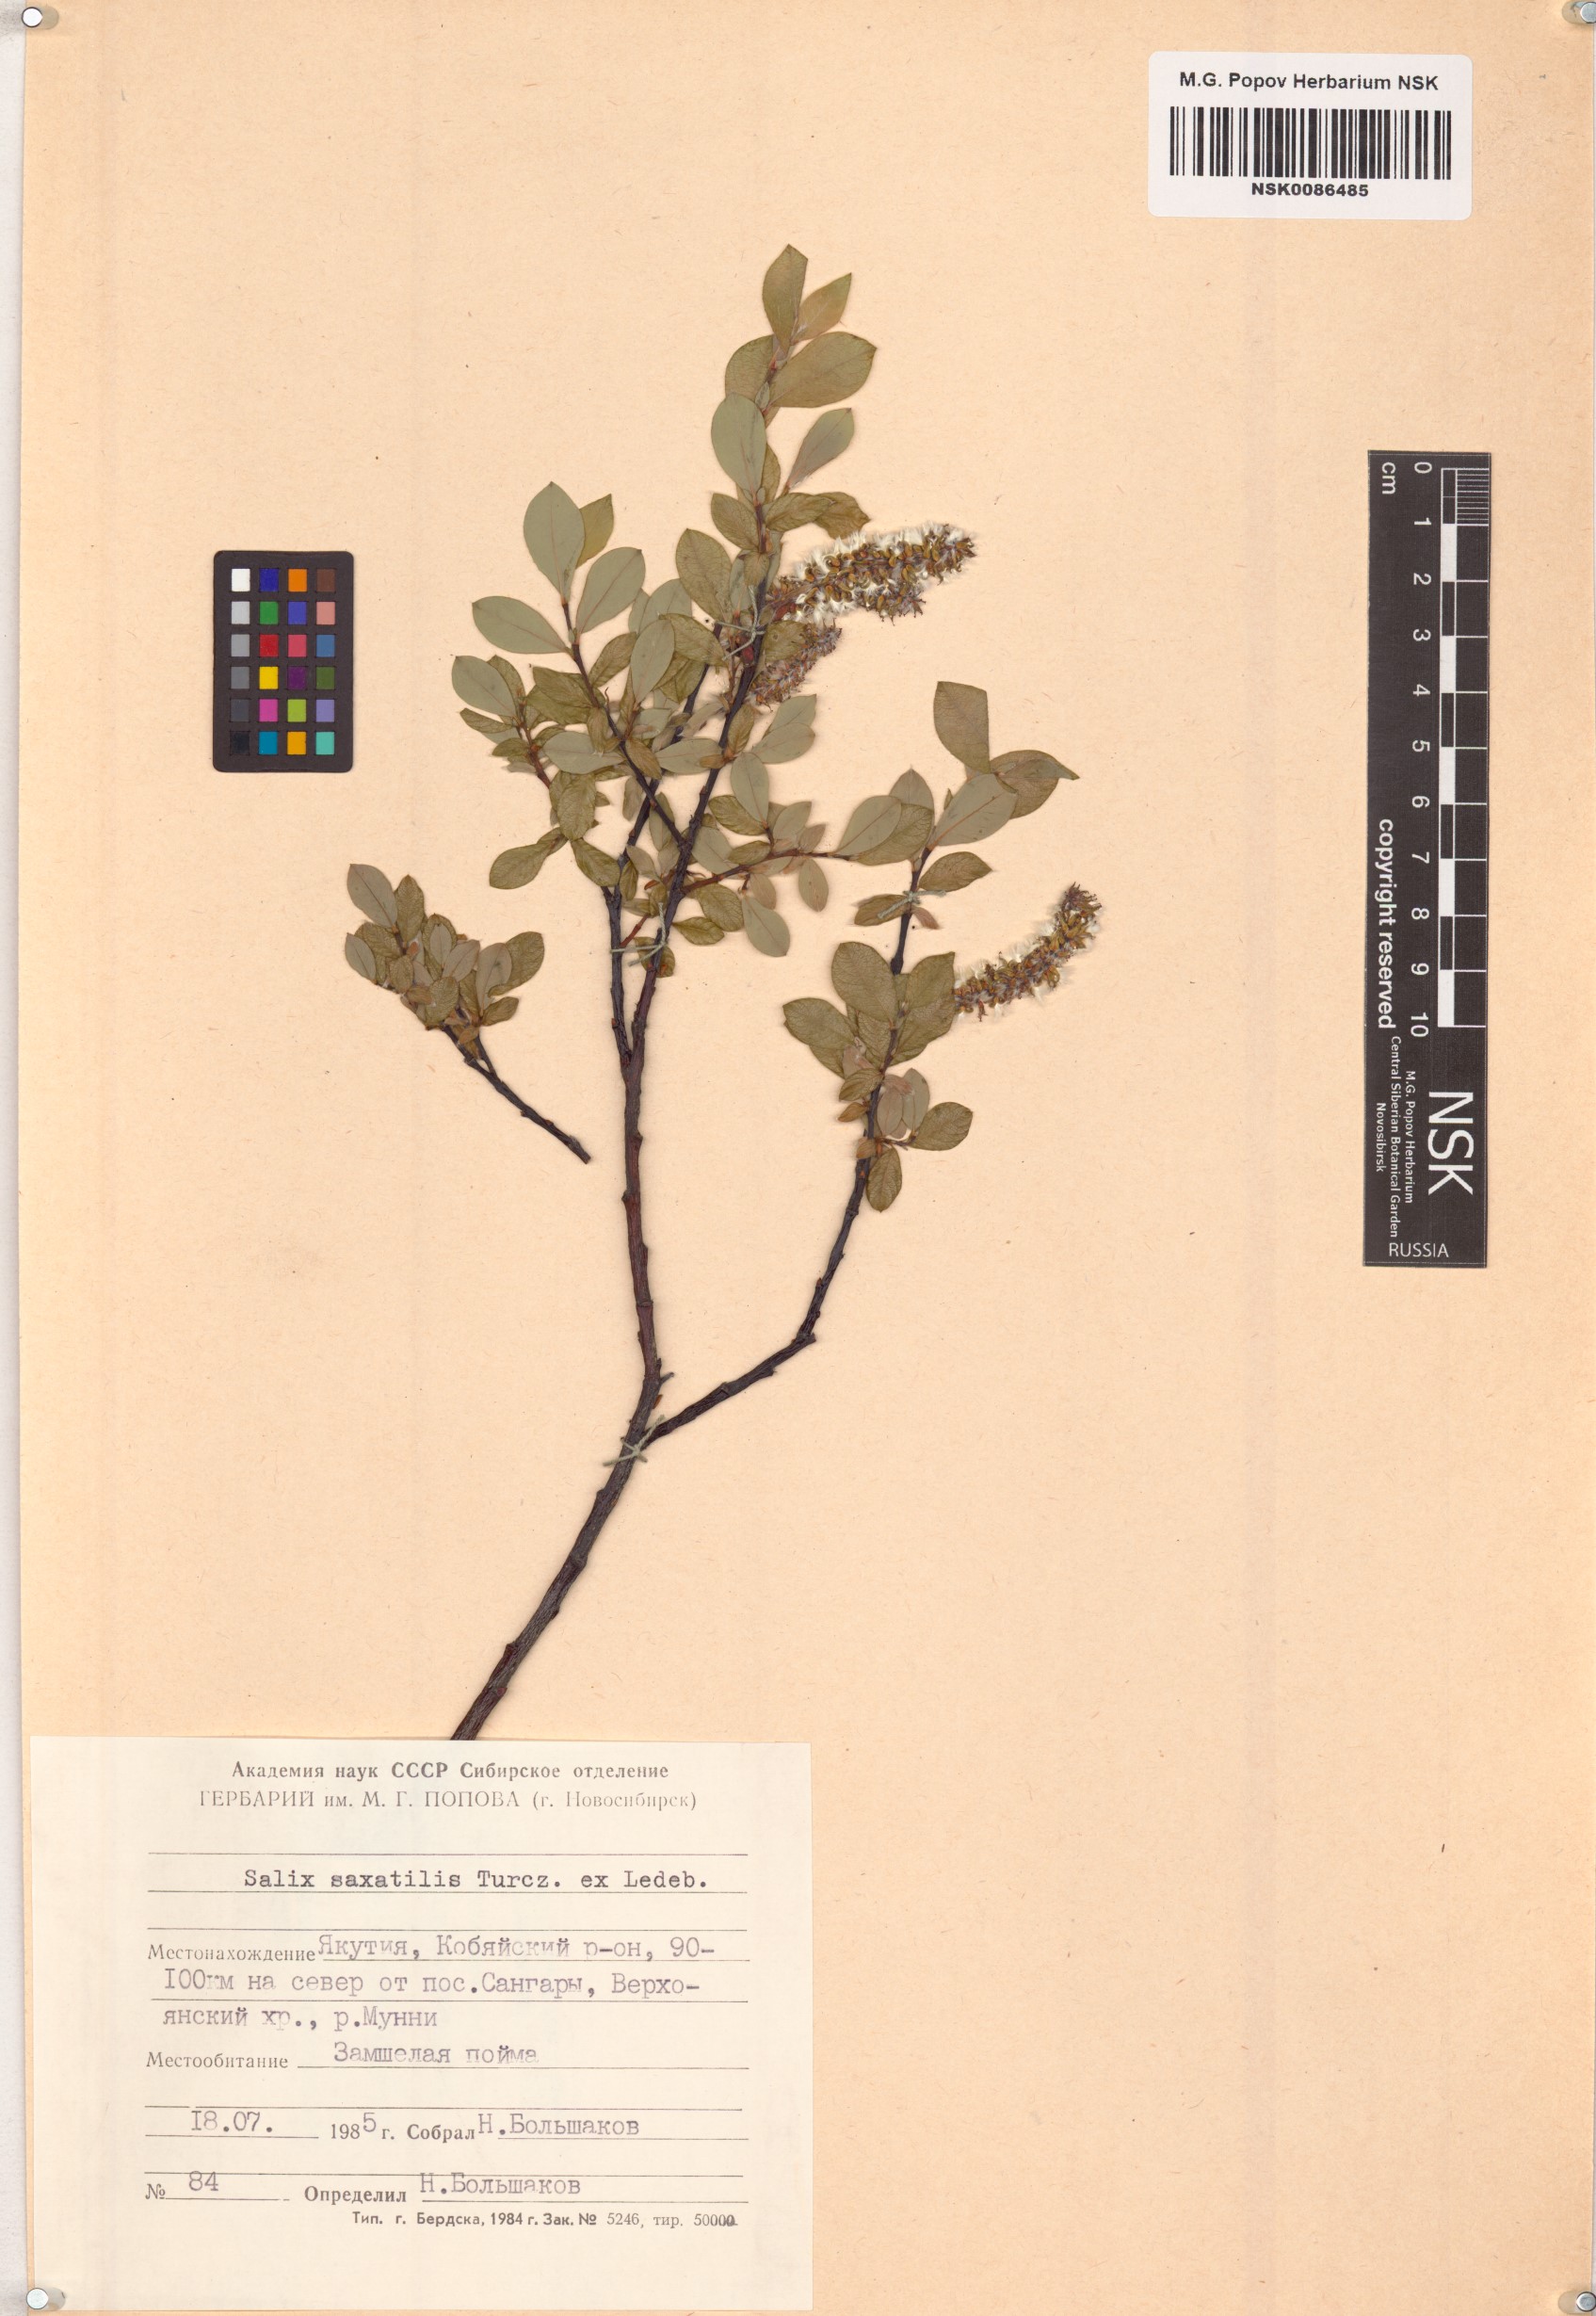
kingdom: Plantae
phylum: Tracheophyta
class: Magnoliopsida
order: Malpighiales
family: Salicaceae
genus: Salix
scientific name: Salix saxatilis
